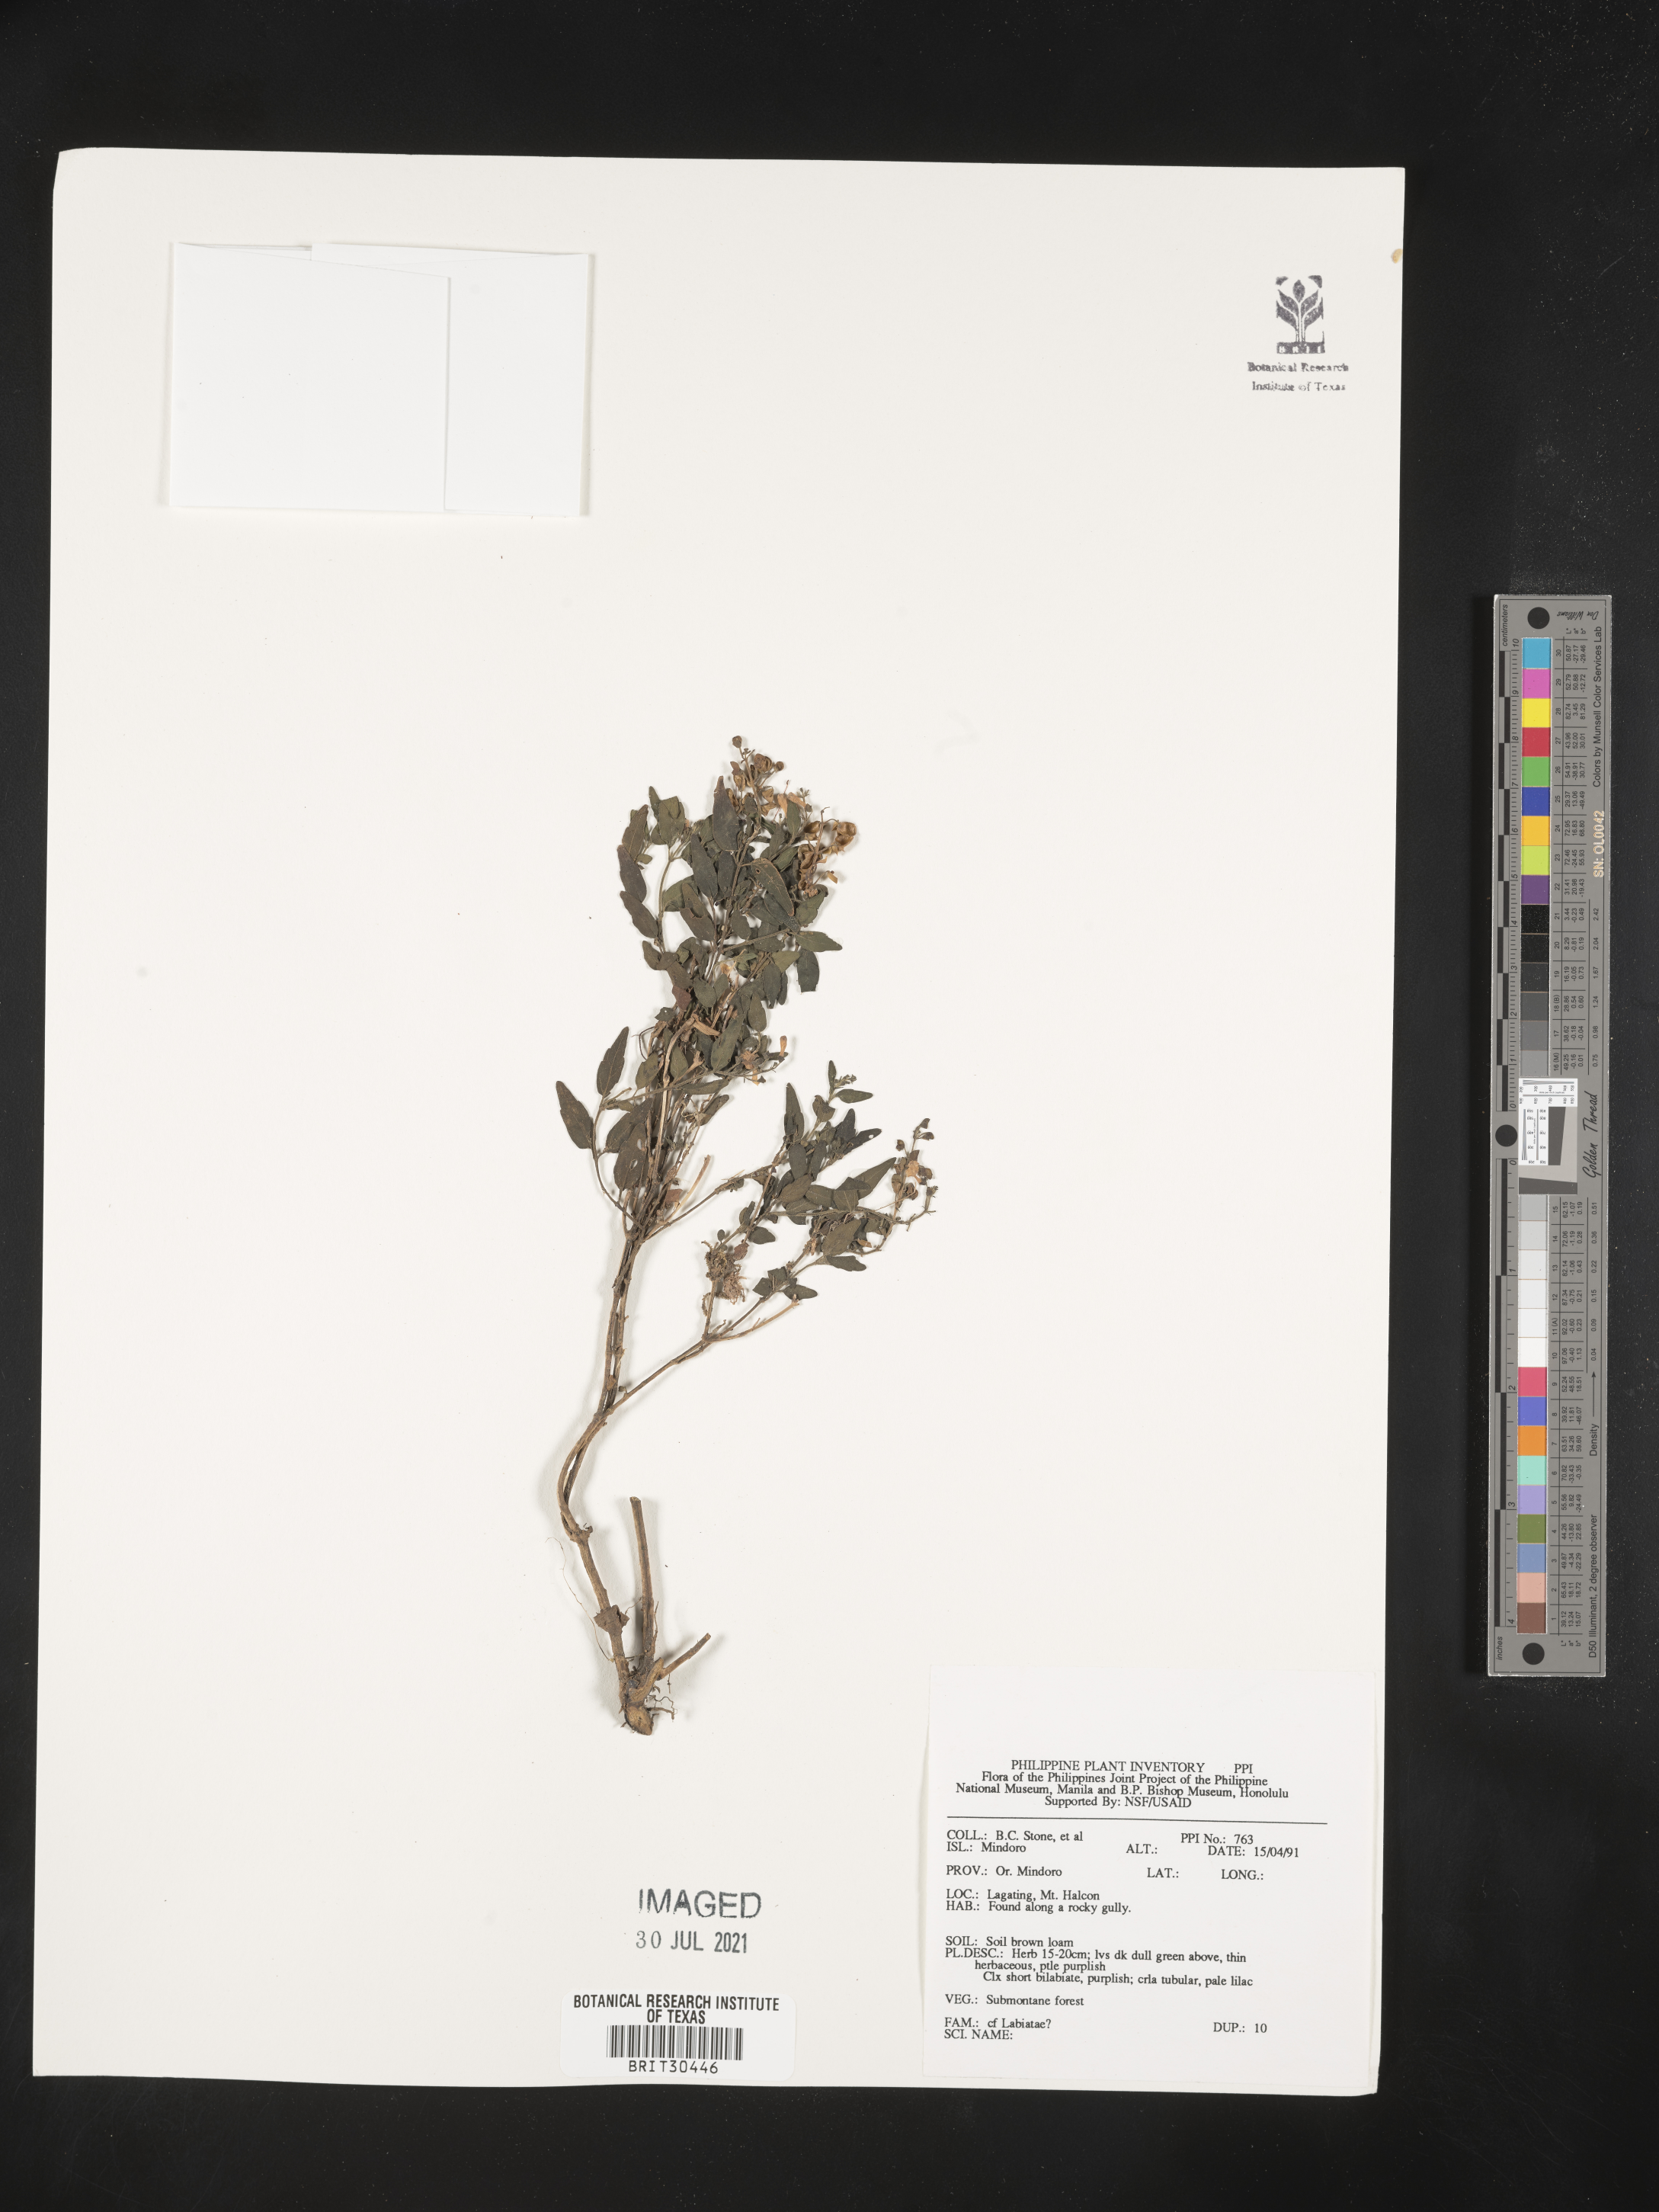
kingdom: Plantae
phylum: Tracheophyta
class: Magnoliopsida
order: Lamiales
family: Lamiaceae
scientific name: Lamiaceae
